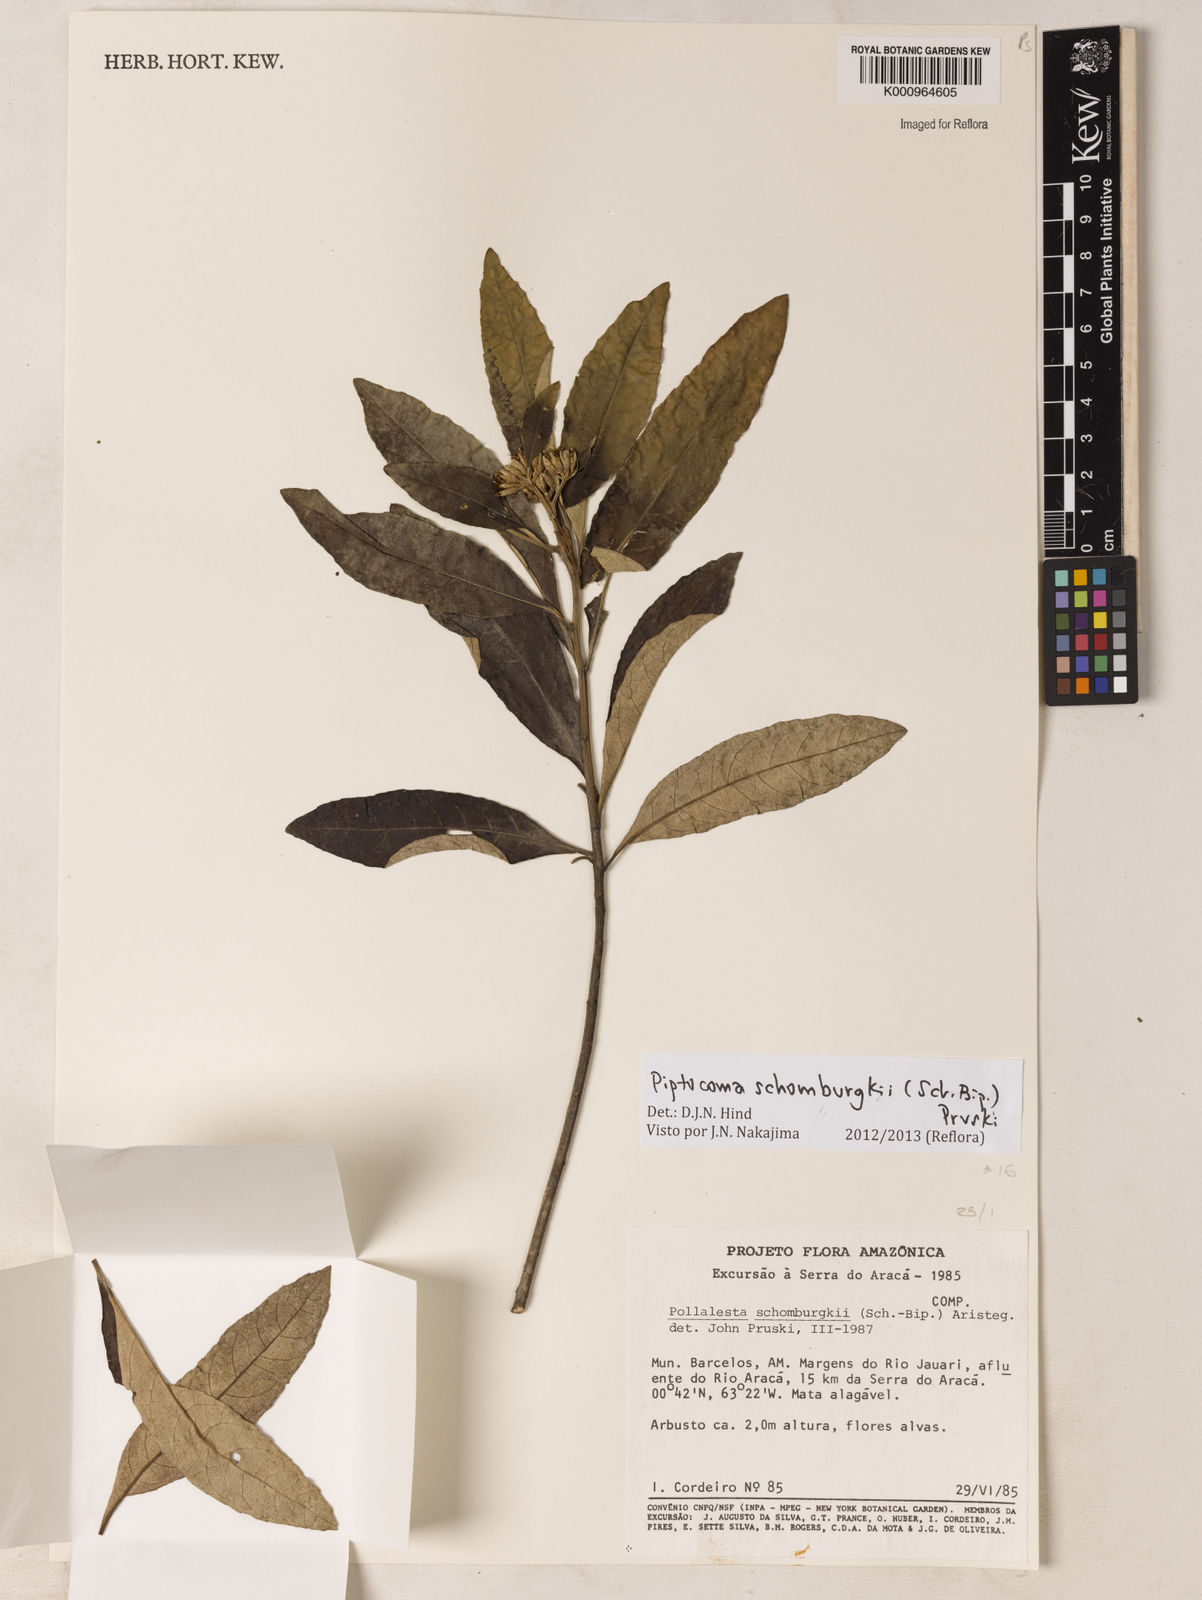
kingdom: Plantae
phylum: Tracheophyta
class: Magnoliopsida
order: Asterales
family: Asteraceae
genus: Piptocoma
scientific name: Piptocoma schomburgkii
